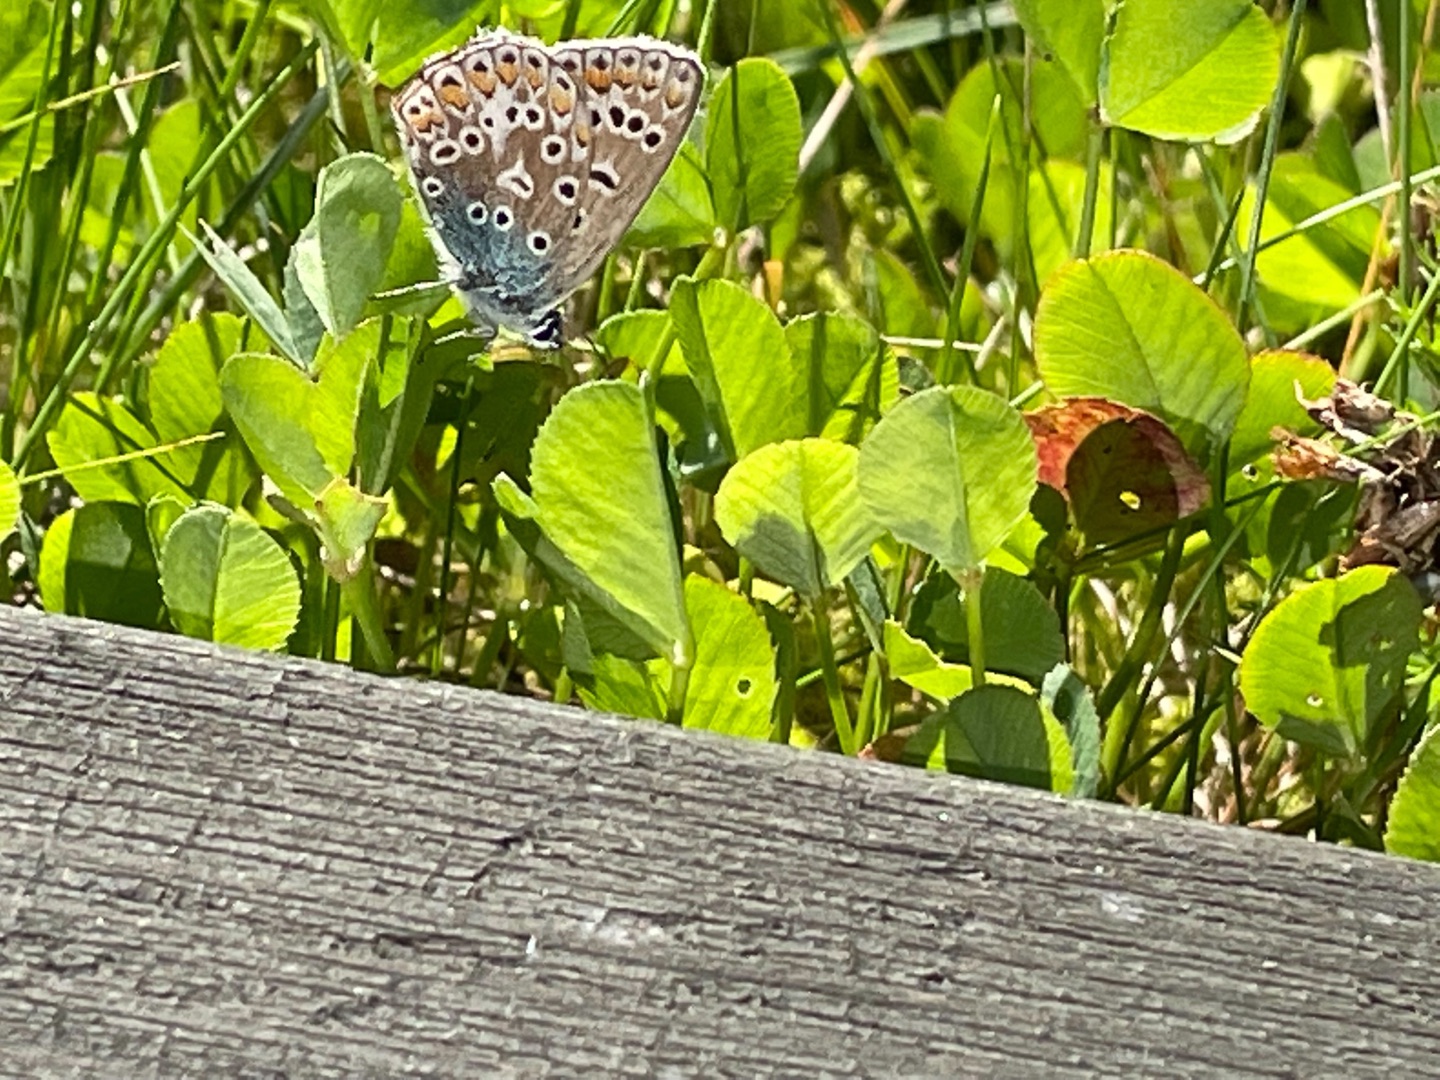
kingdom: Animalia
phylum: Arthropoda
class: Insecta
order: Lepidoptera
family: Lycaenidae
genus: Polyommatus
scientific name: Polyommatus icarus
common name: Almindelig blåfugl
